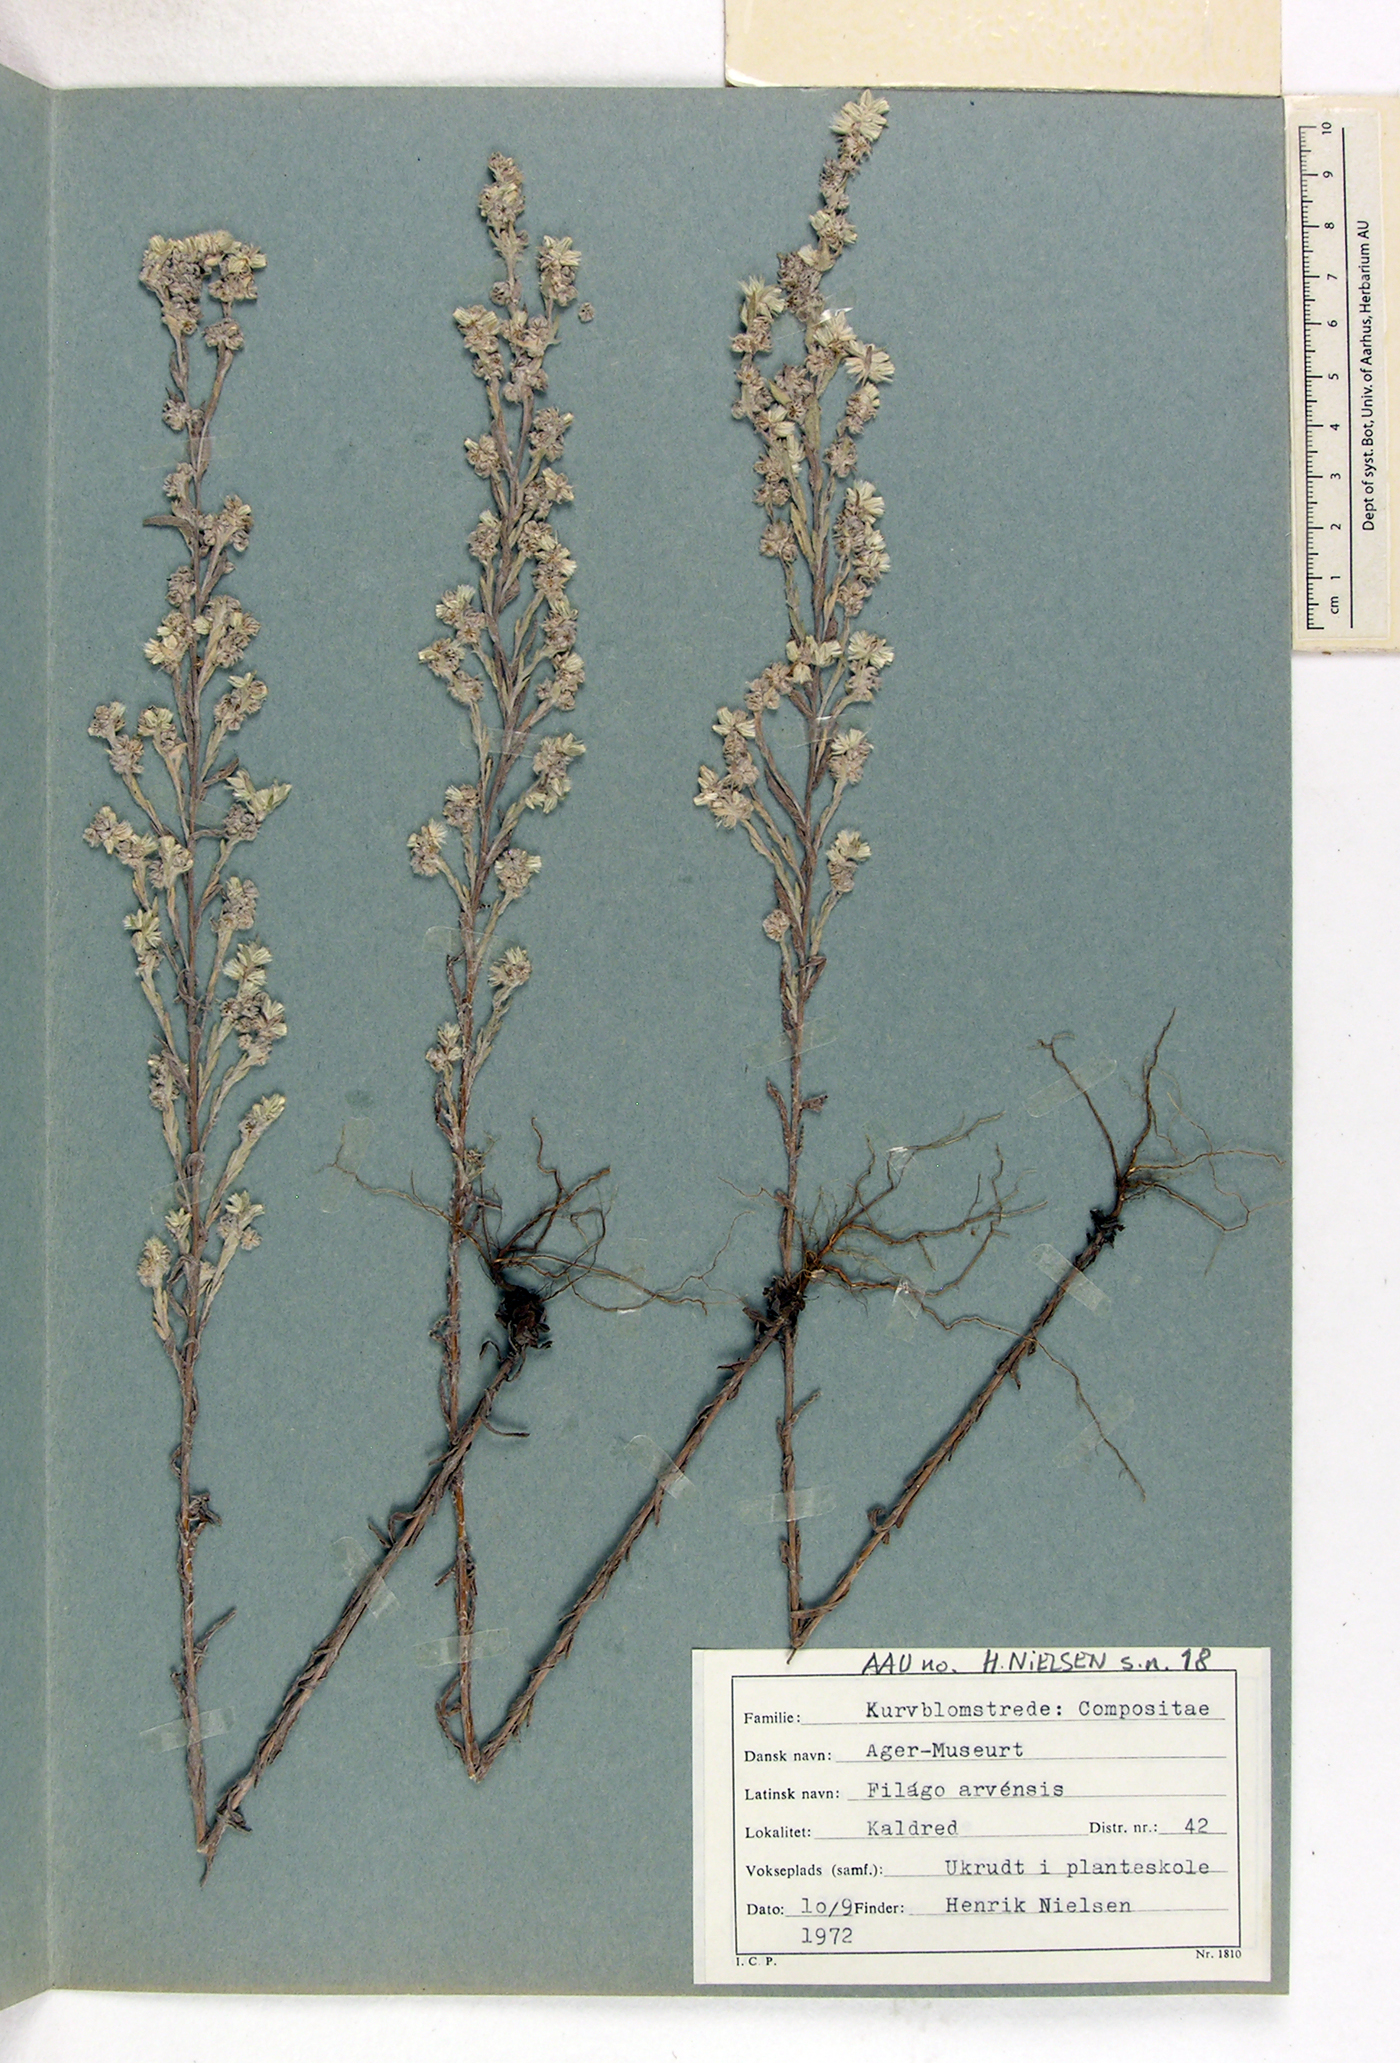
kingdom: Plantae
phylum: Tracheophyta
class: Magnoliopsida
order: Asterales
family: Asteraceae
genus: Filago
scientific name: Filago arvensis
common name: Field cudweed
